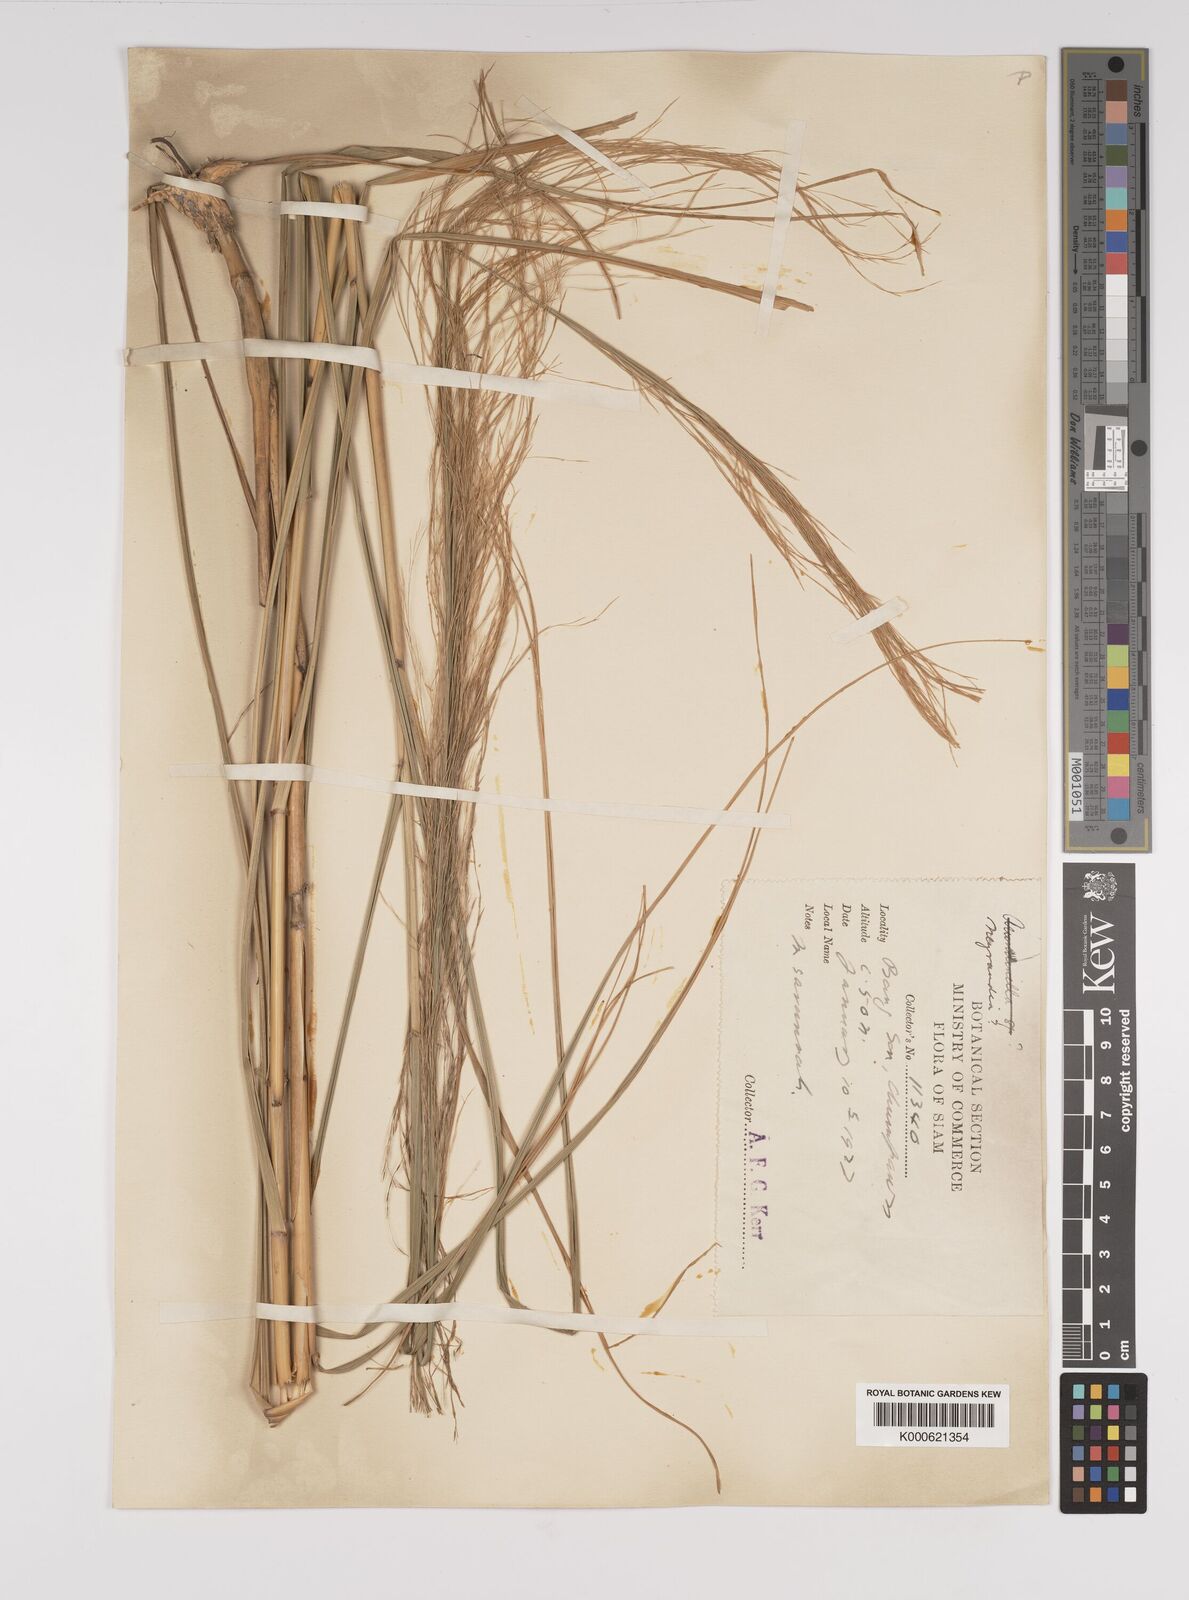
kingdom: Plantae
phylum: Tracheophyta
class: Liliopsida
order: Poales
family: Poaceae
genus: Neyraudia
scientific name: Neyraudia reynaudiana
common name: Silkreed
